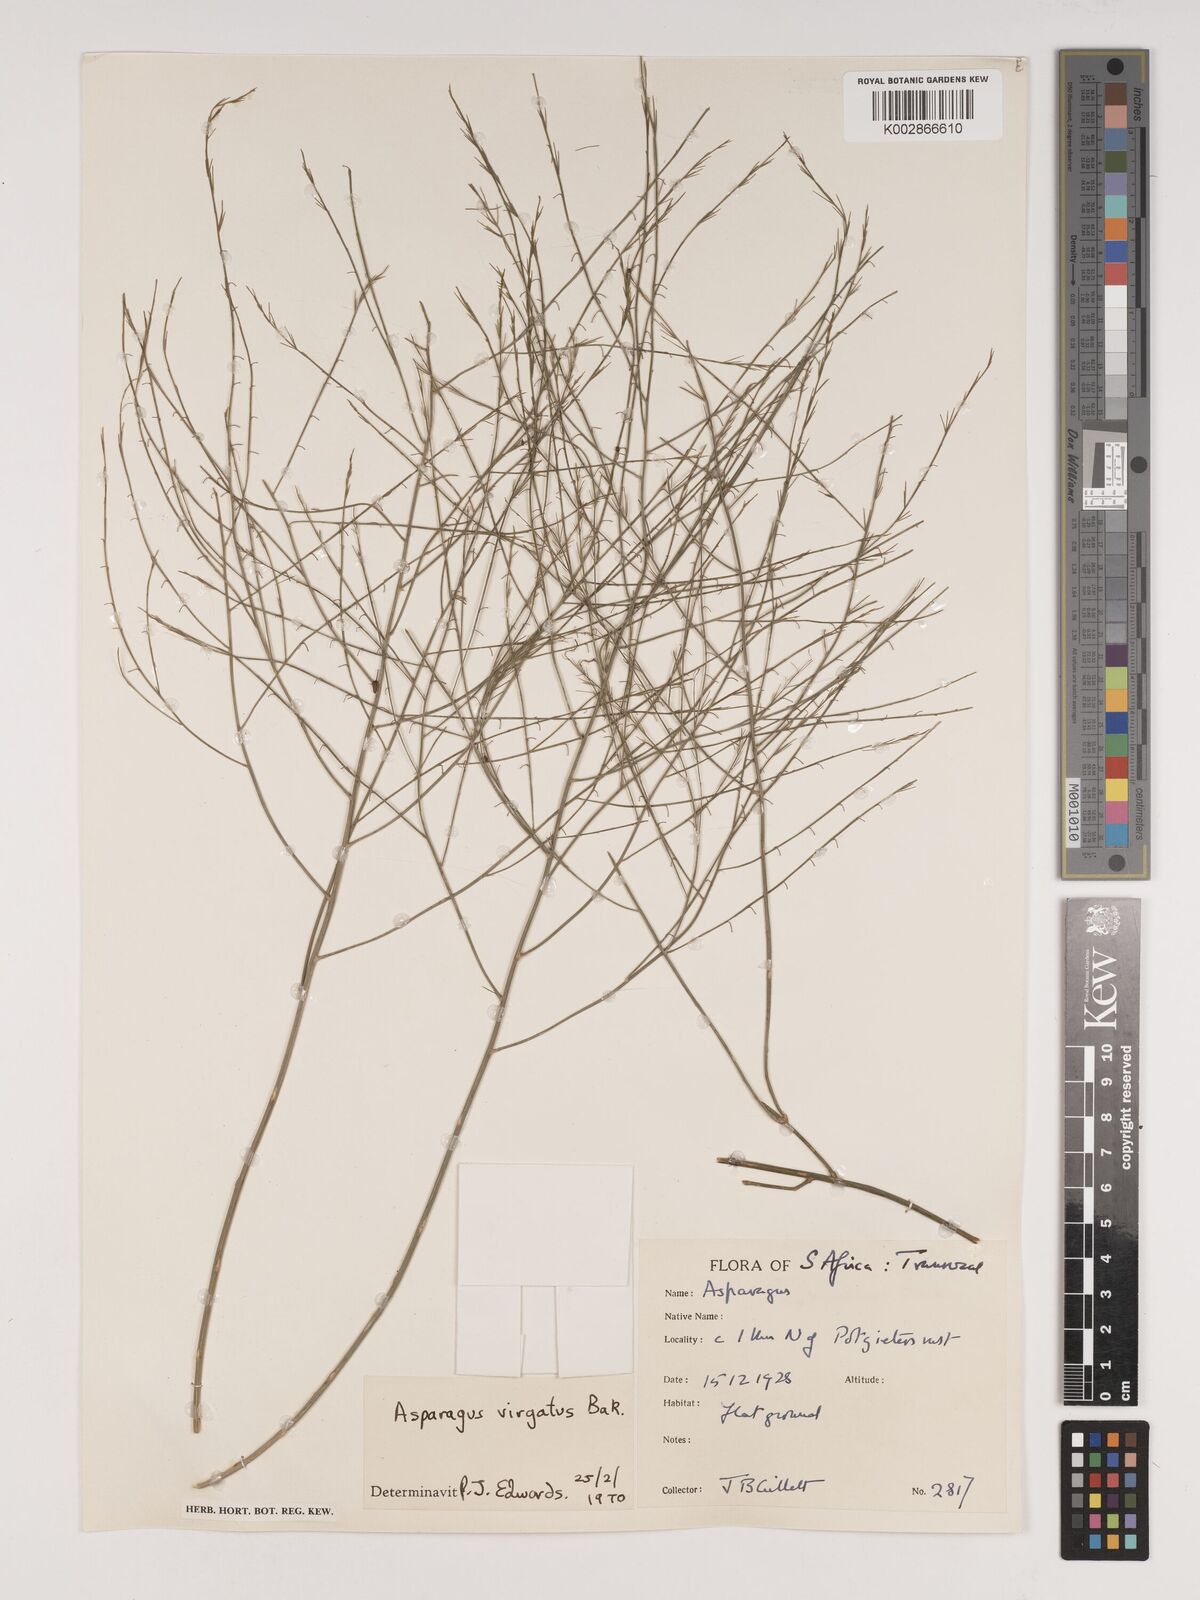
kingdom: Plantae
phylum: Tracheophyta
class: Liliopsida
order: Asparagales
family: Asparagaceae
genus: Asparagus
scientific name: Asparagus virgatus
